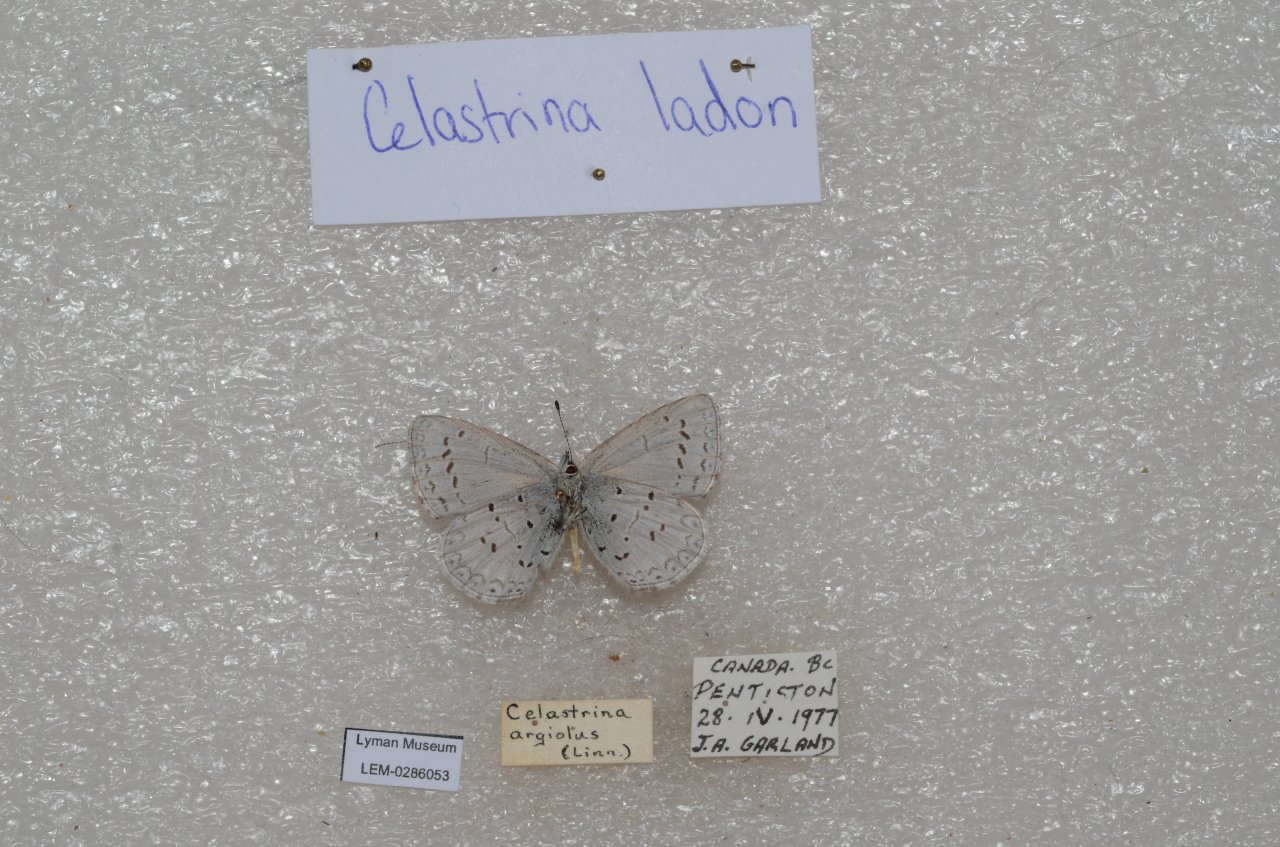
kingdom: Animalia
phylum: Arthropoda
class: Insecta
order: Lepidoptera
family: Lycaenidae
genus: Celastrina
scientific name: Celastrina
